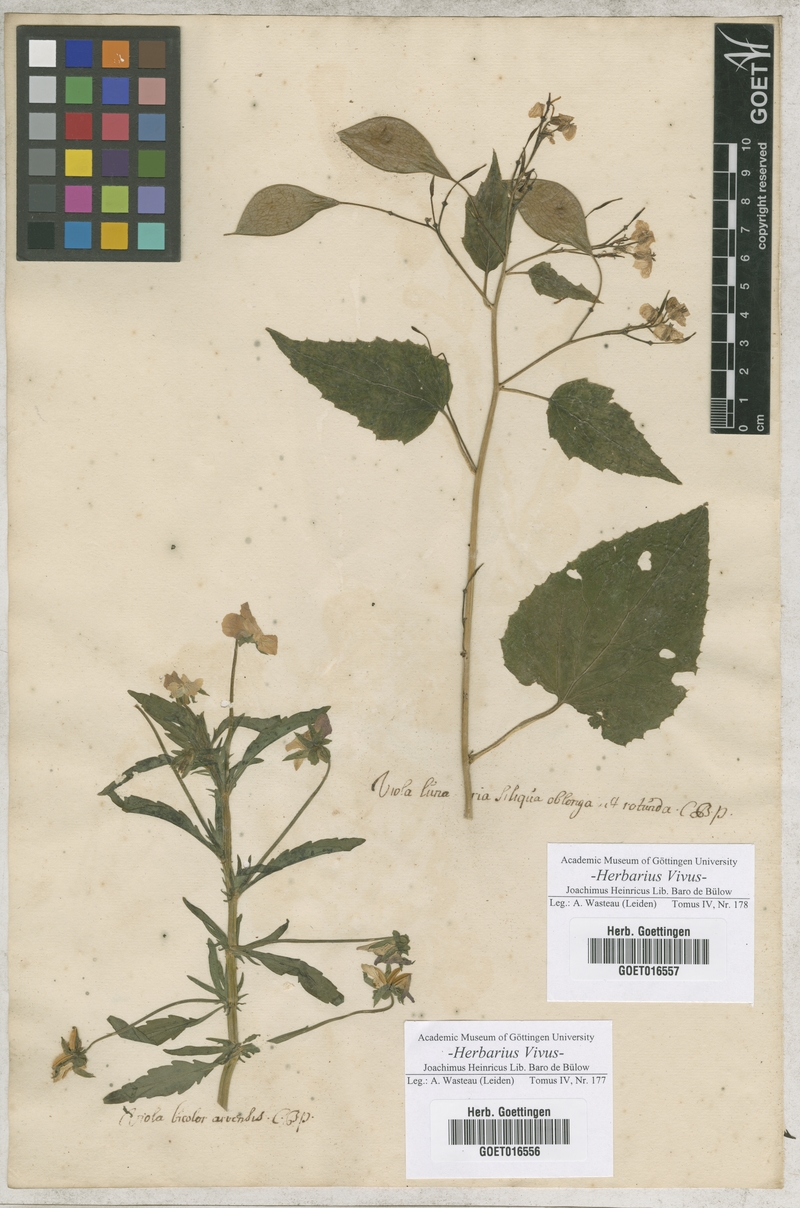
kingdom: Plantae
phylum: Tracheophyta
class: Magnoliopsida
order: Malpighiales
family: Violaceae
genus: Viola
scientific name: Viola tricolor
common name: Pansy
